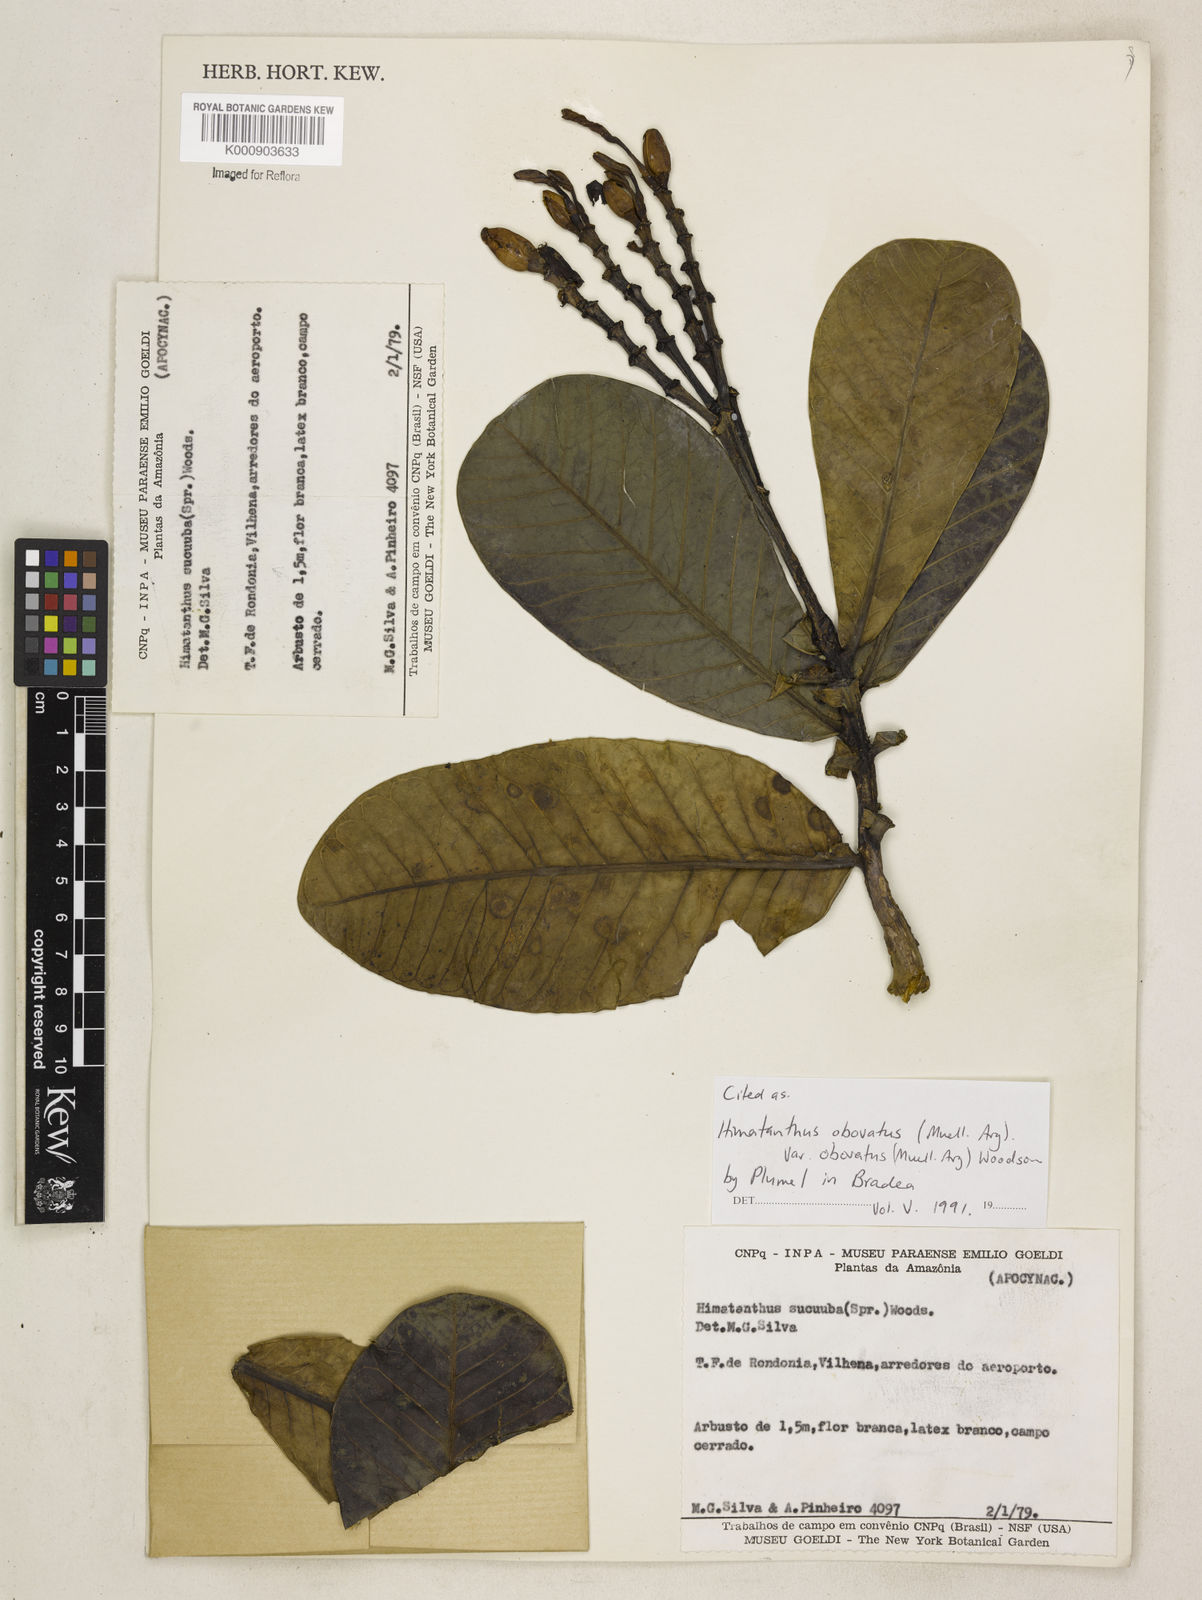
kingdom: Plantae
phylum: Tracheophyta
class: Magnoliopsida
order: Gentianales
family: Apocynaceae
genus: Himatanthus
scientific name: Himatanthus
